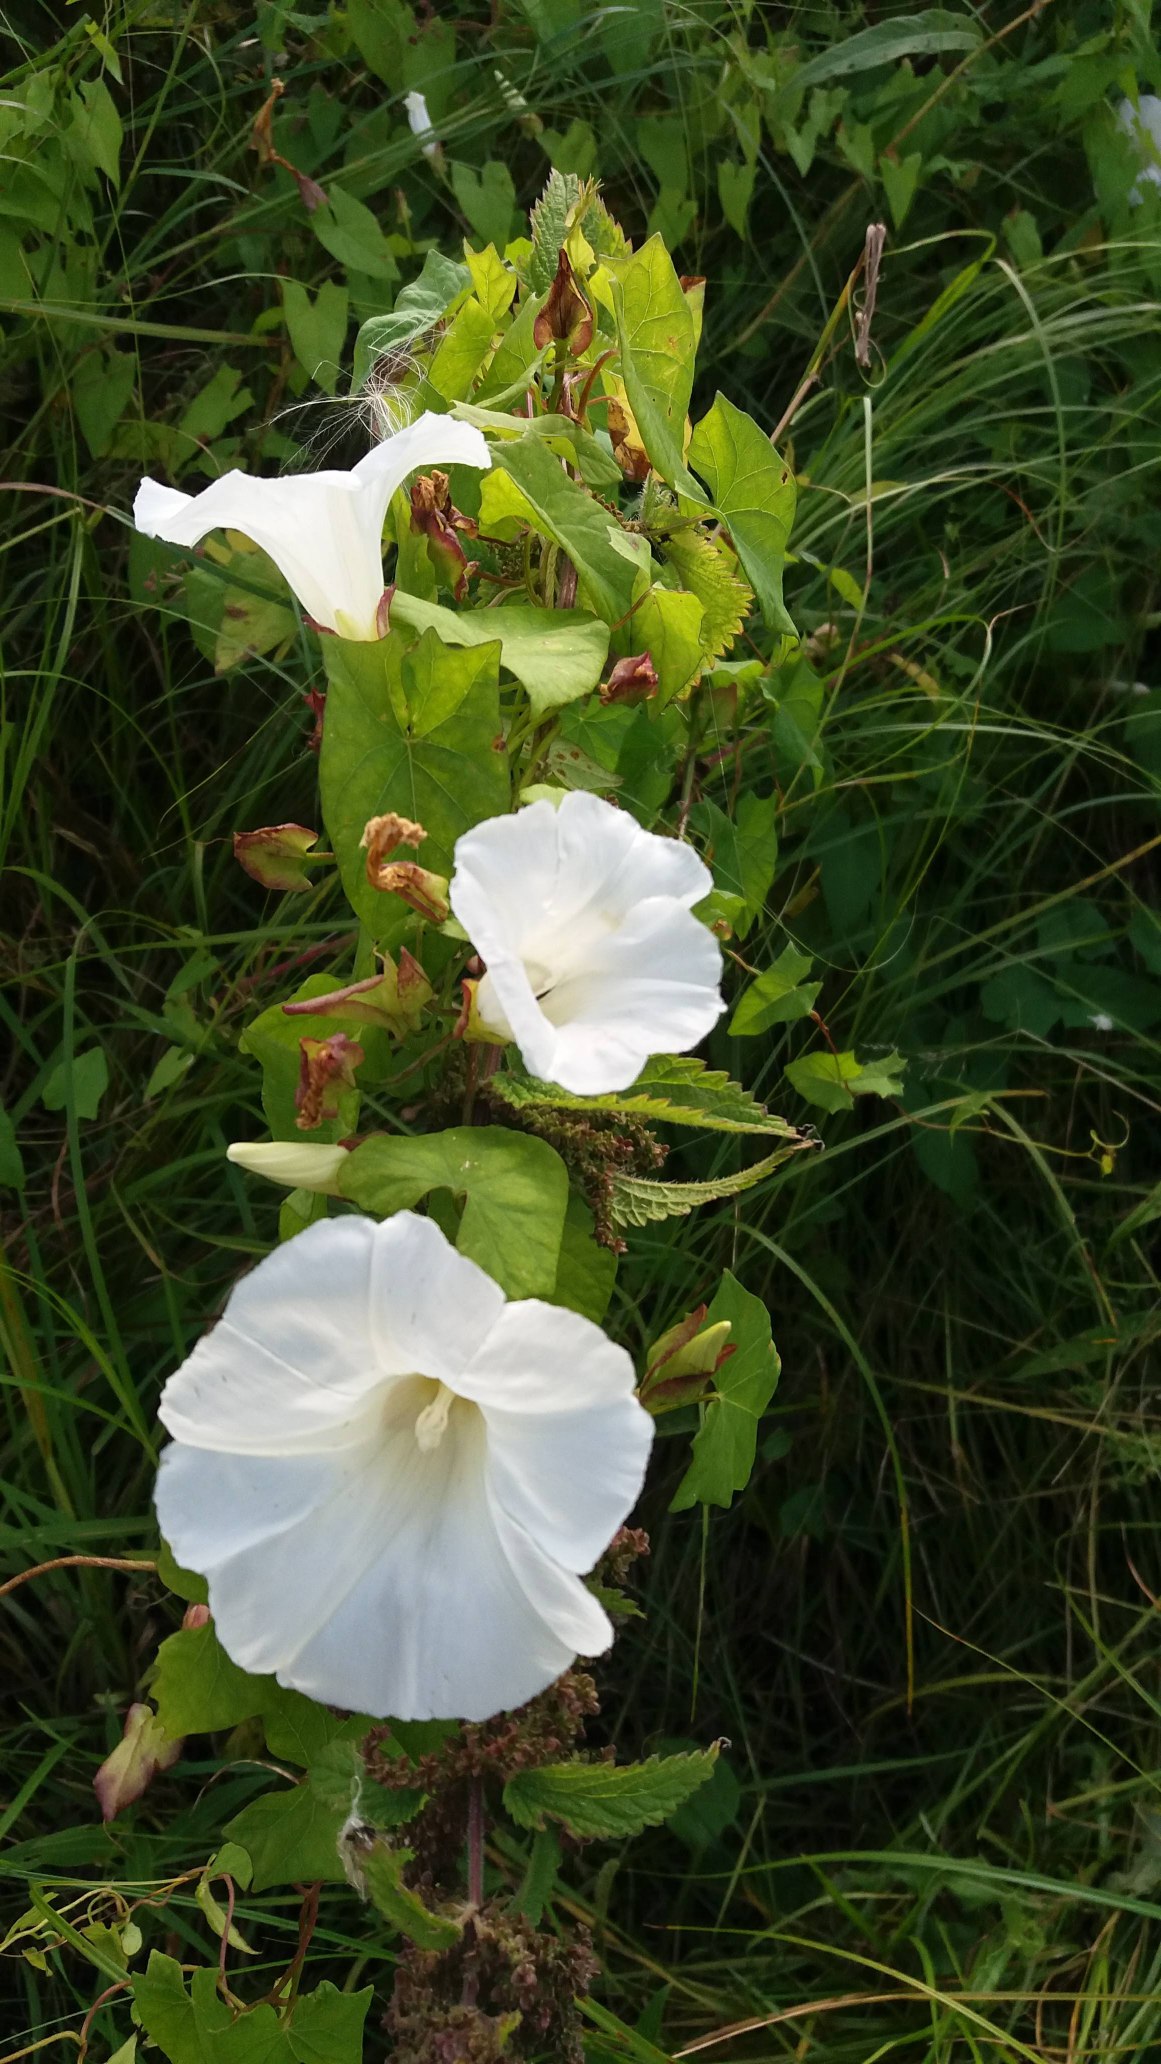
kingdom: Plantae
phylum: Tracheophyta
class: Magnoliopsida
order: Solanales
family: Convolvulaceae
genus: Calystegia
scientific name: Calystegia sepium
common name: Gærde-snerle
